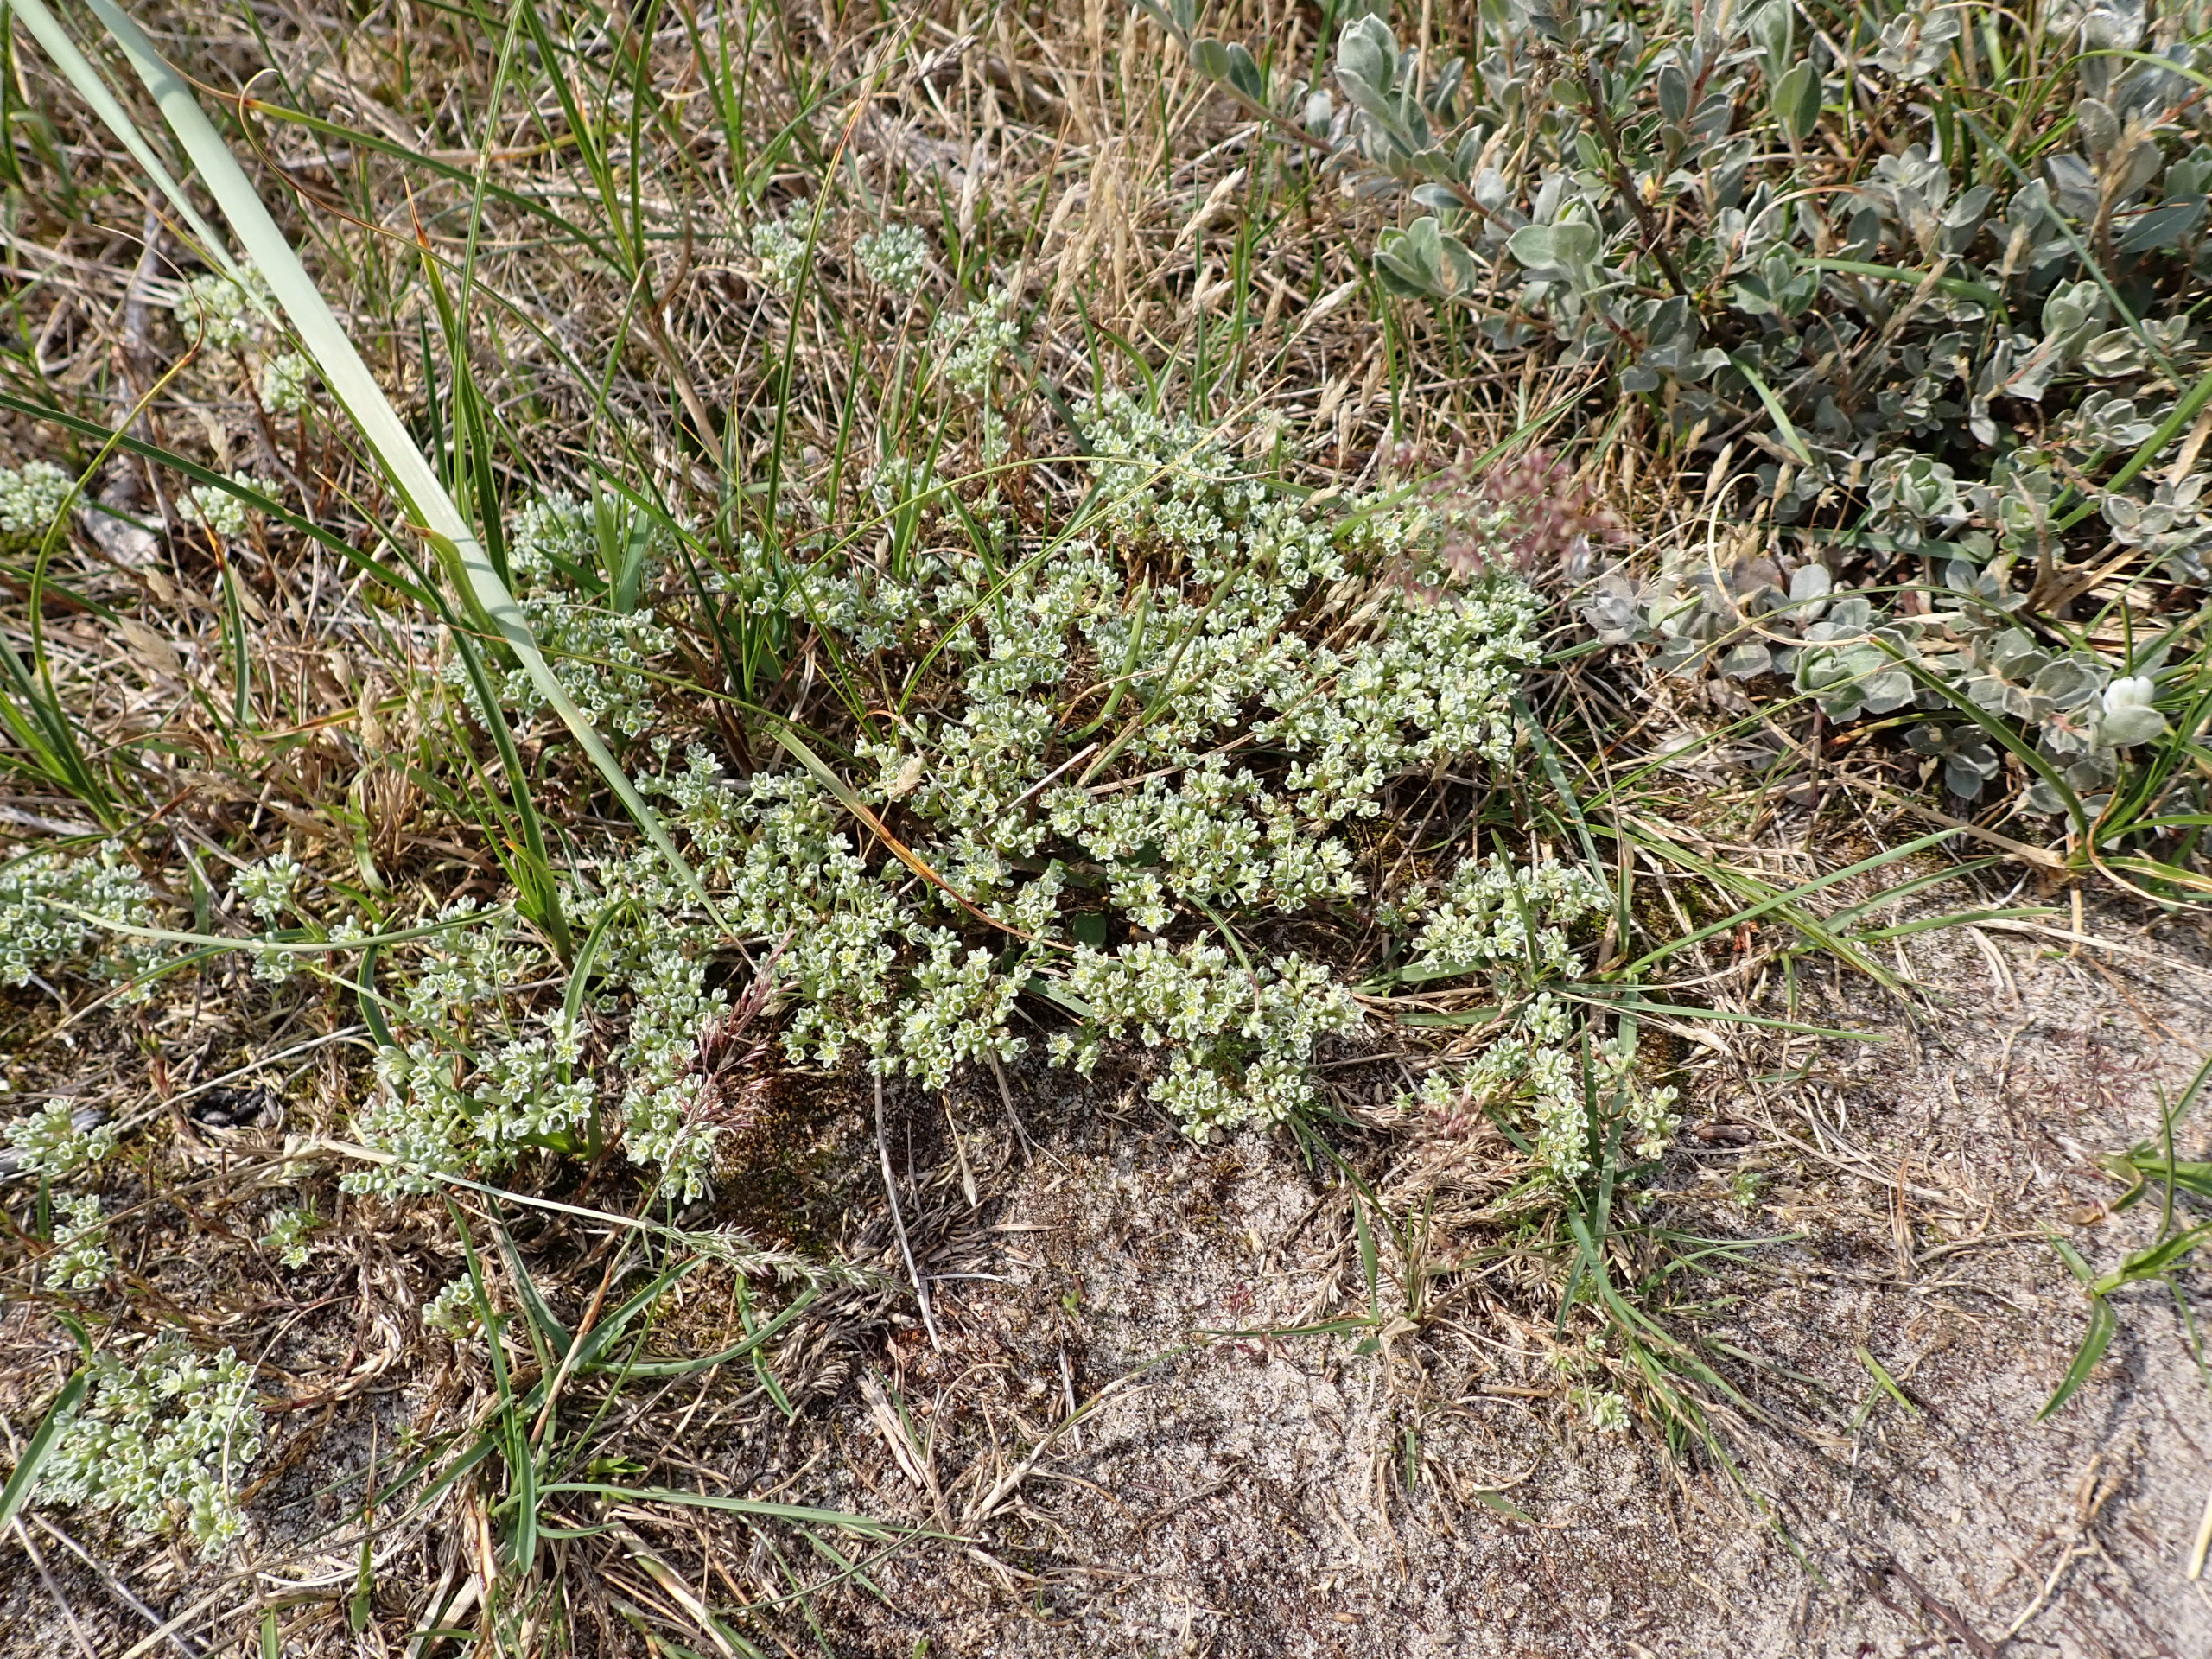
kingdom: Plantae
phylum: Tracheophyta
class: Magnoliopsida
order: Caryophyllales
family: Caryophyllaceae
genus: Scleranthus
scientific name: Scleranthus perennis
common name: Flerårig knavel
